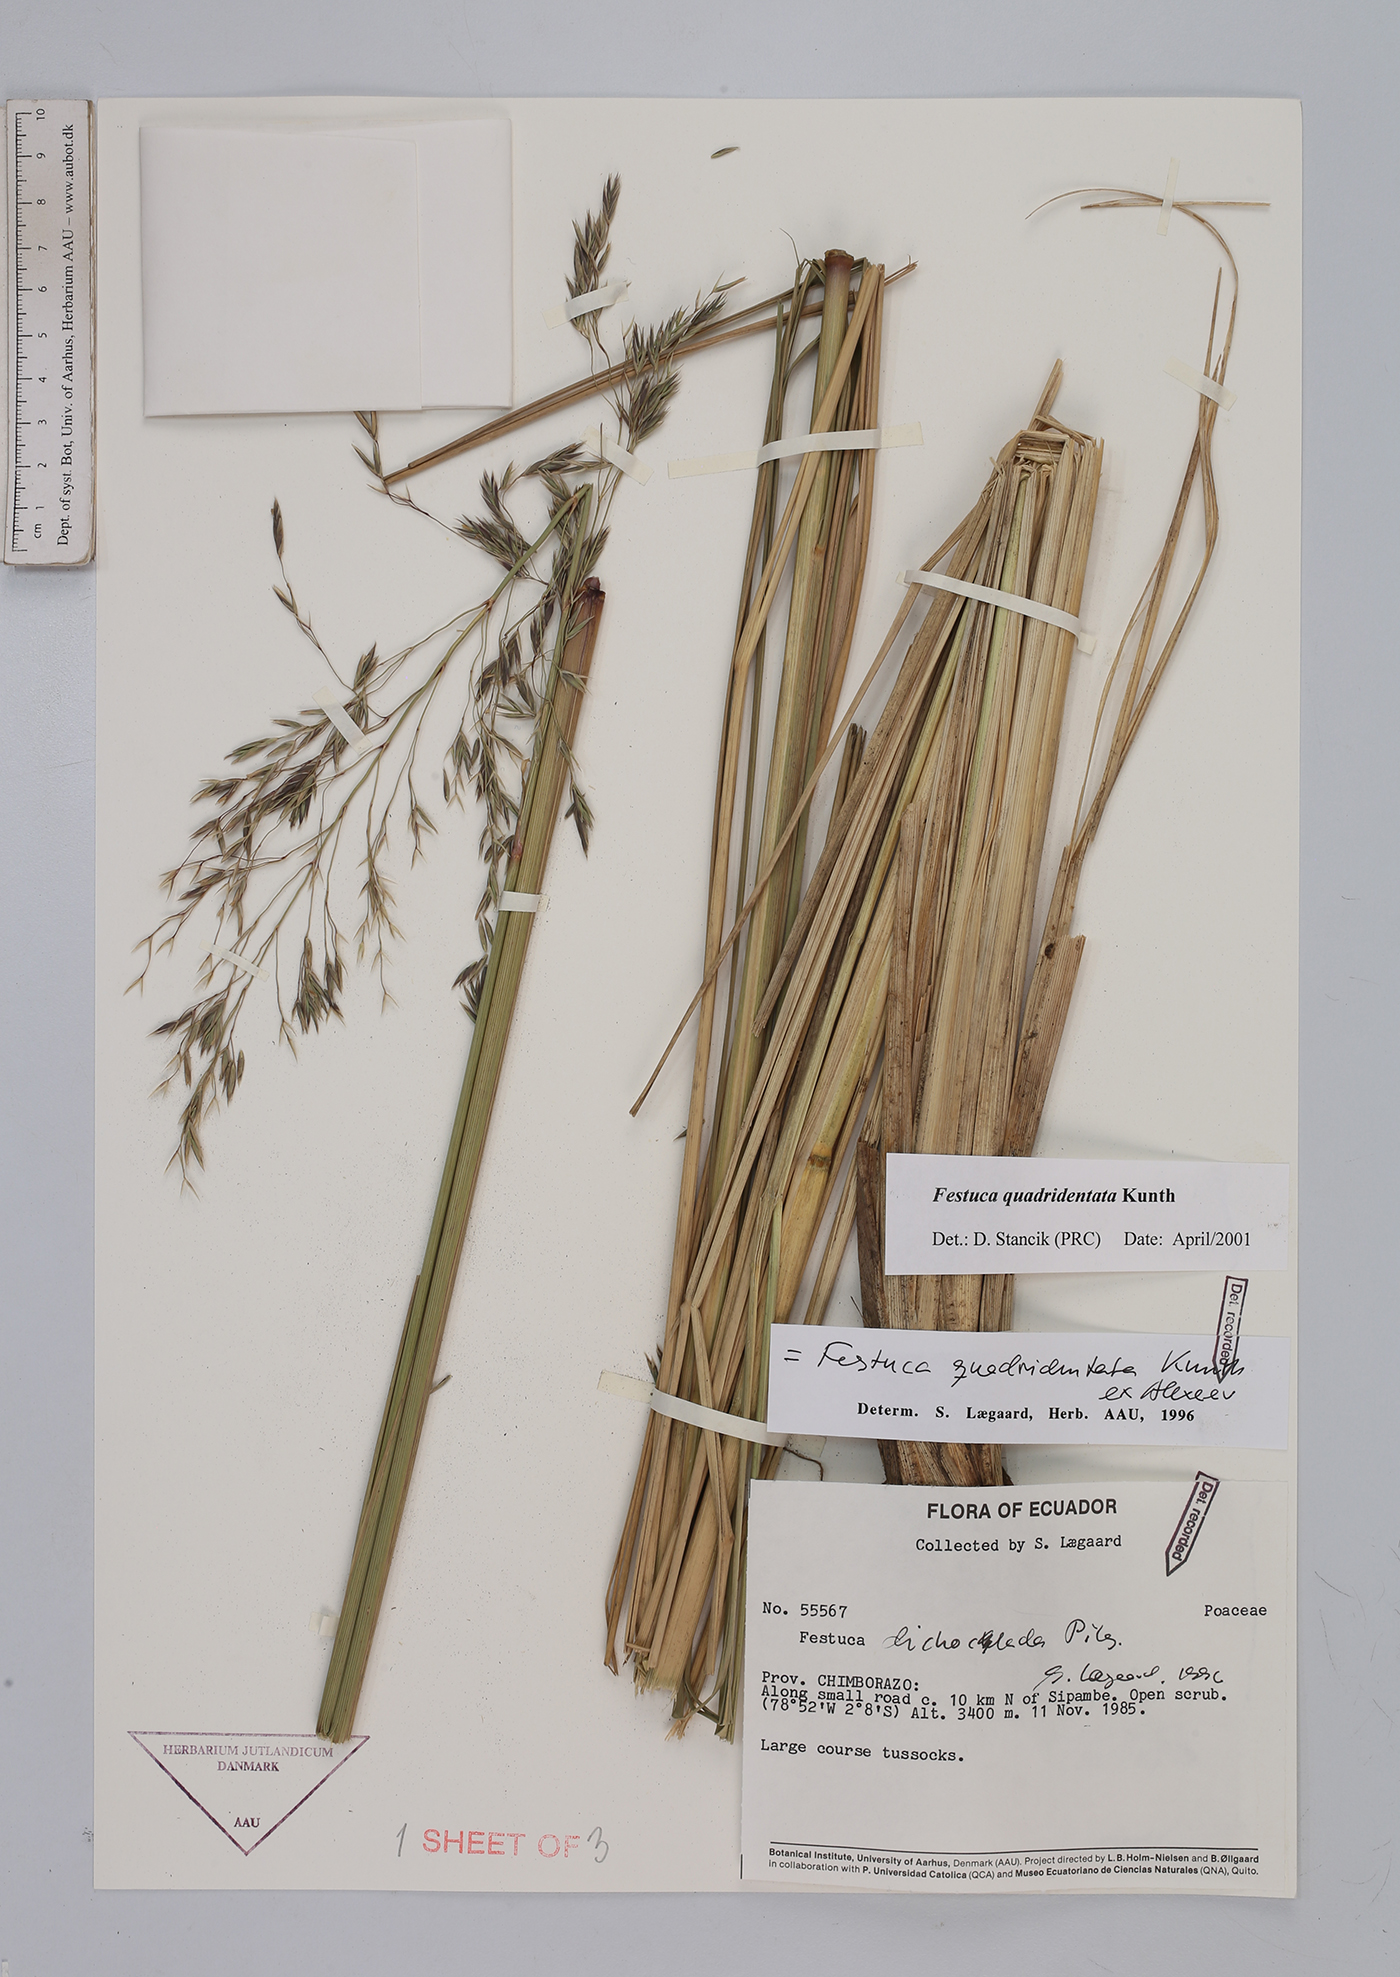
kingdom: Plantae
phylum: Tracheophyta
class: Liliopsida
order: Poales
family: Poaceae
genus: Festuca
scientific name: Festuca quadridentata
